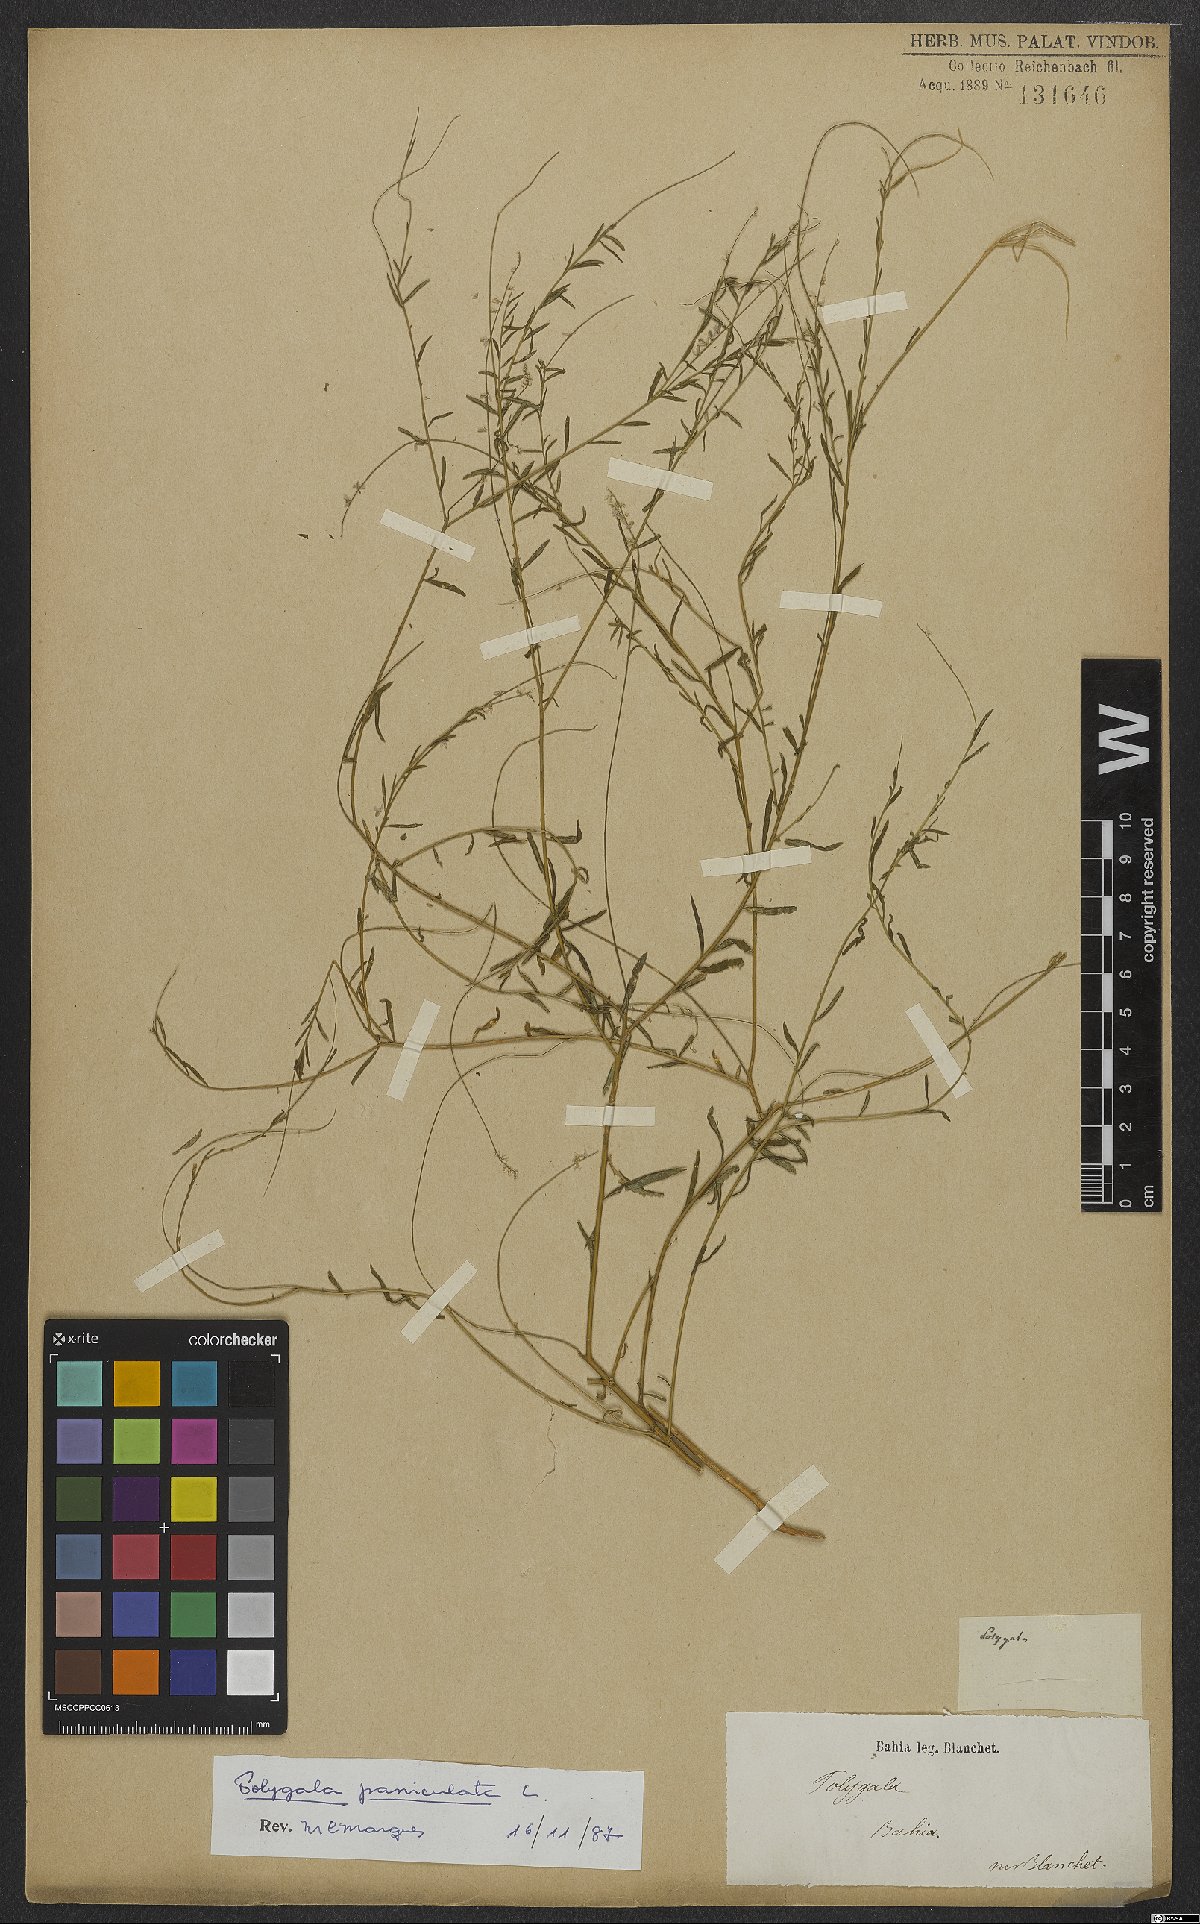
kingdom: Plantae
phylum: Tracheophyta
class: Magnoliopsida
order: Fabales
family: Polygalaceae
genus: Polygala
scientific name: Polygala exilis
